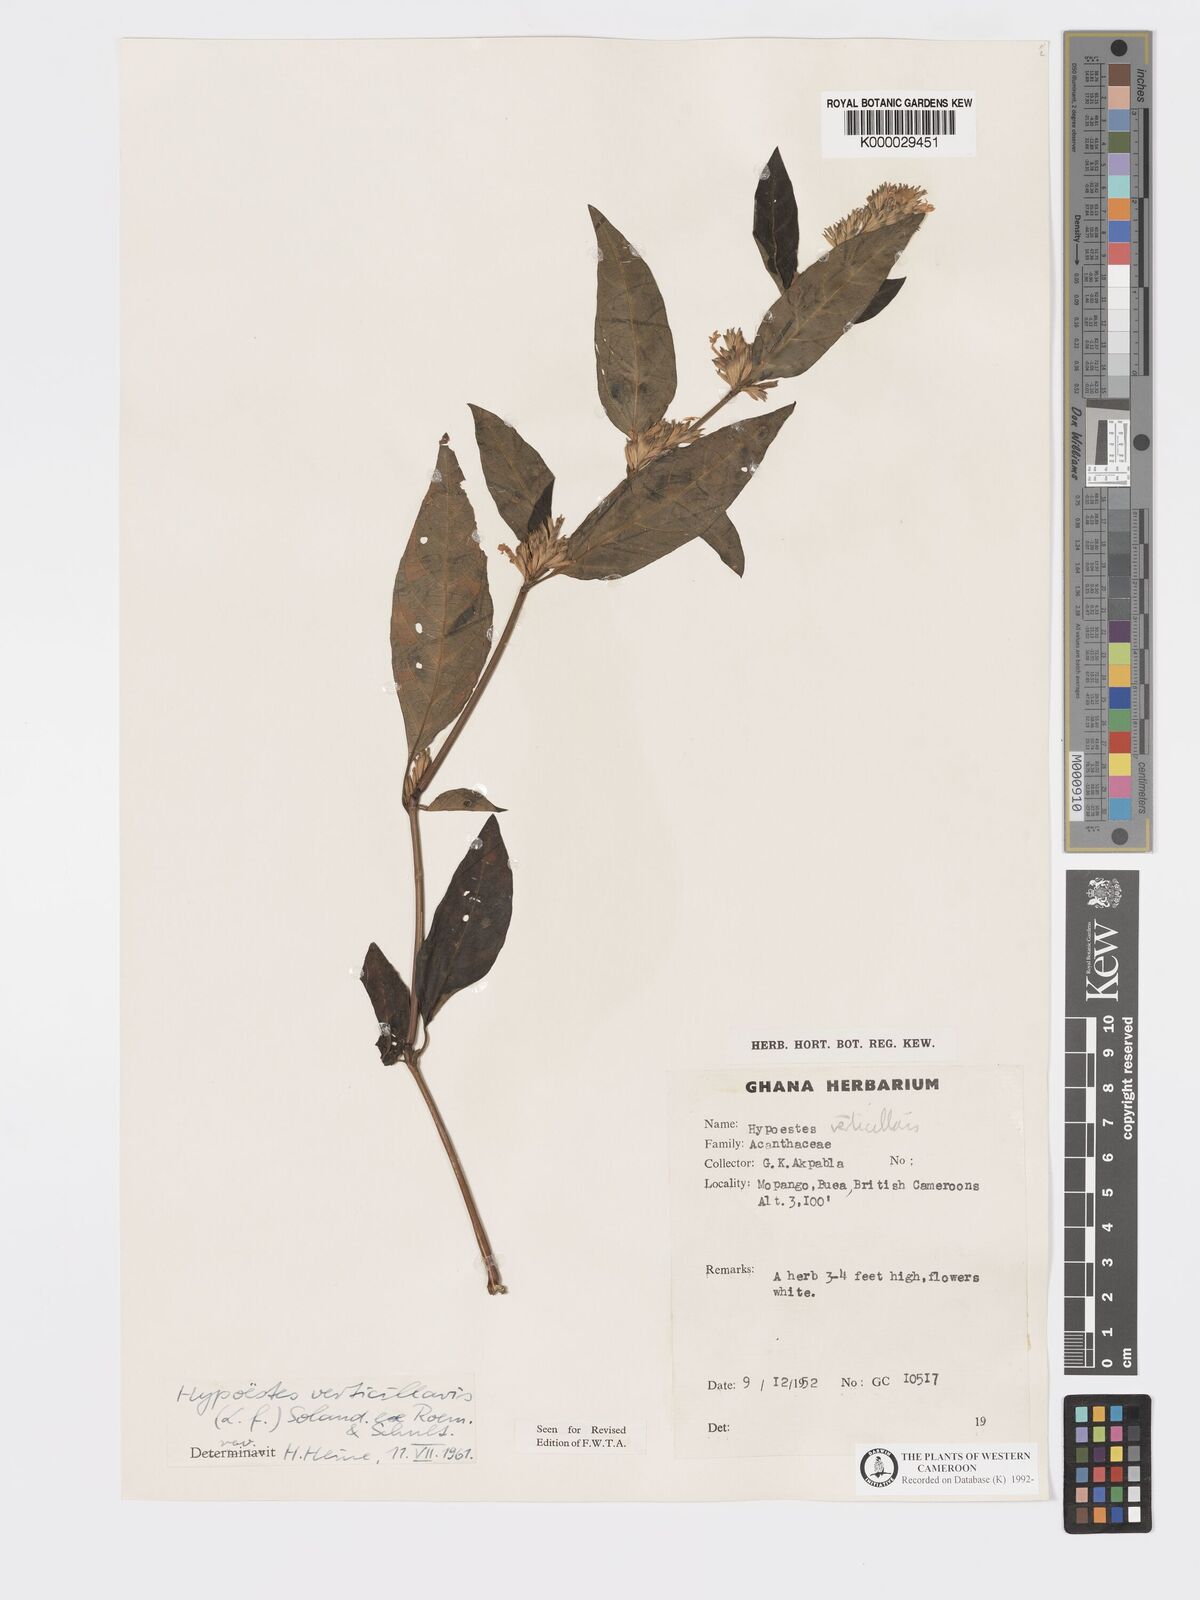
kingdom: Plantae
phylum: Tracheophyta
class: Magnoliopsida
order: Lamiales
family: Acanthaceae
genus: Hypoestes
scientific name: Hypoestes
